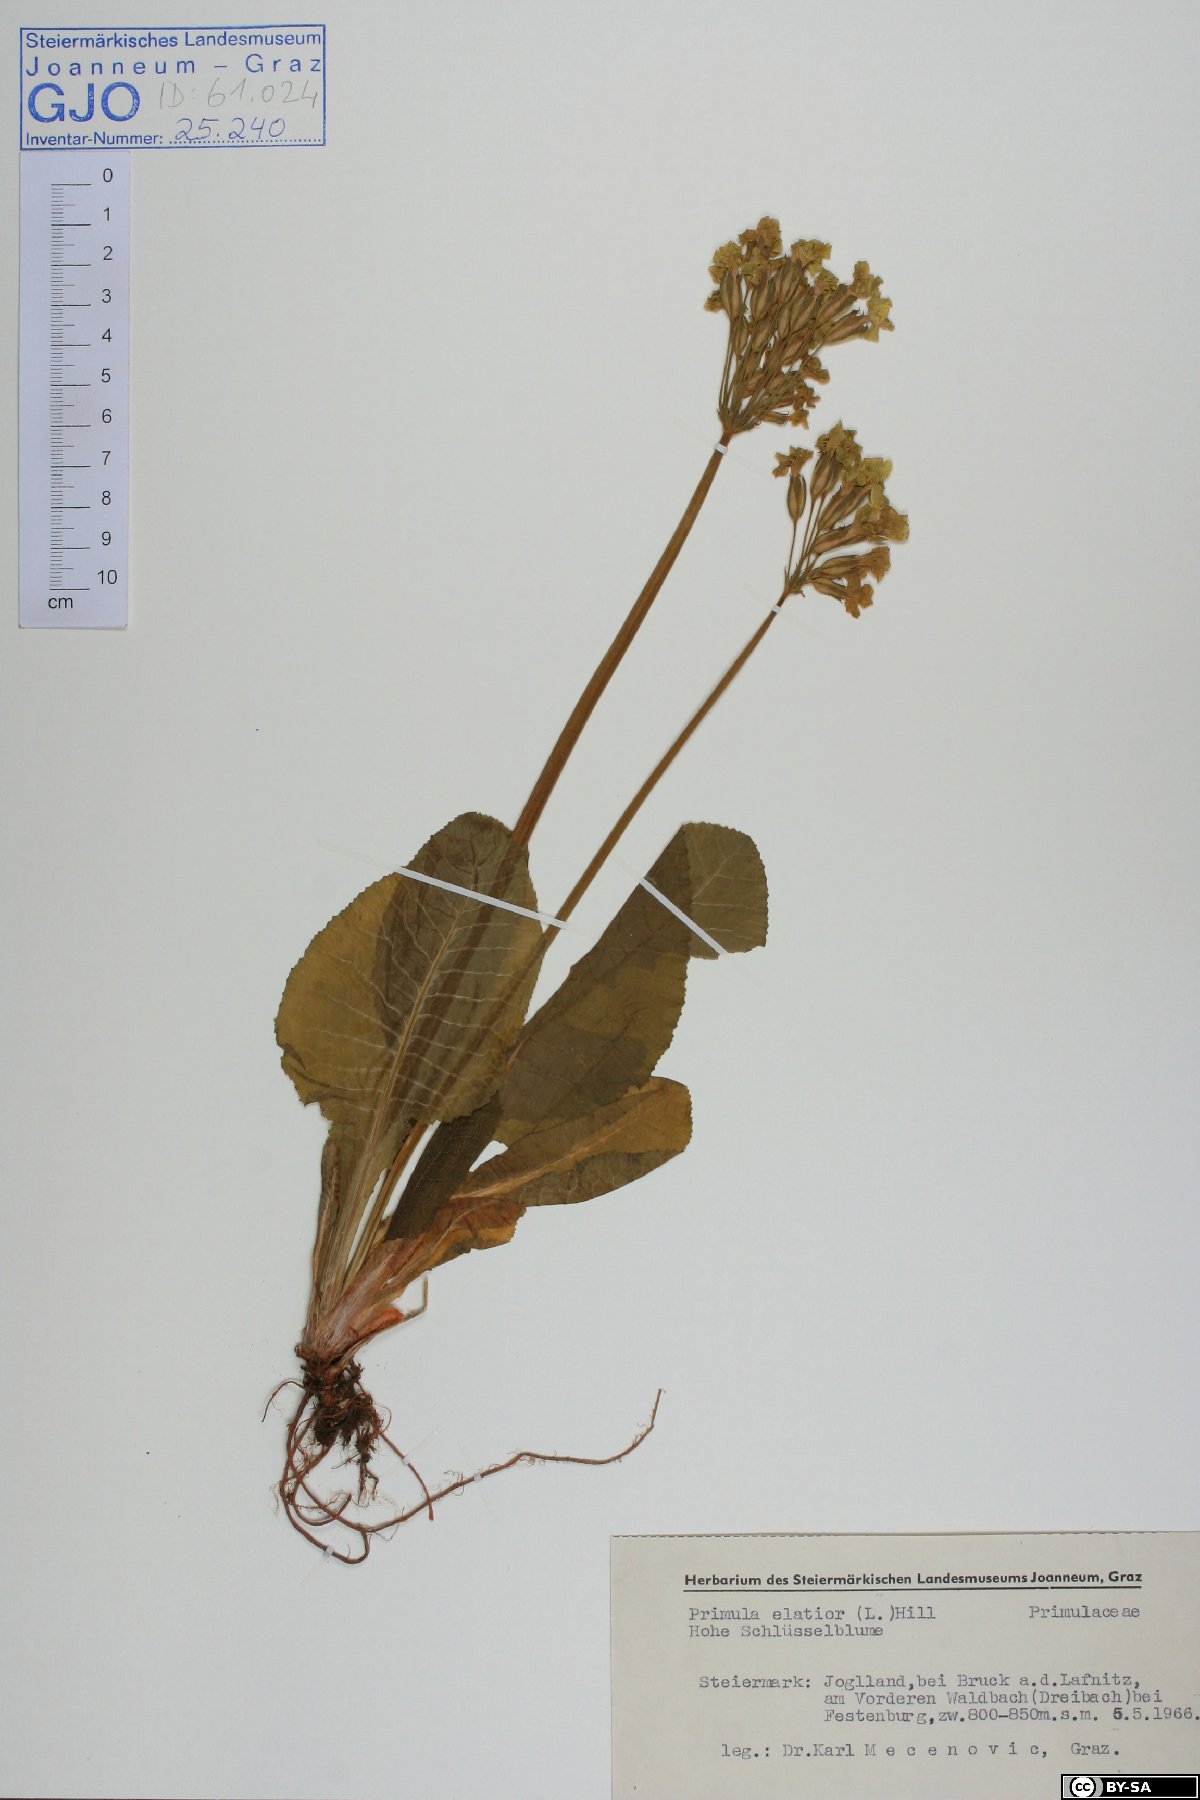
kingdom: Plantae
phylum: Tracheophyta
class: Magnoliopsida
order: Ericales
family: Primulaceae
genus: Primula
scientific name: Primula elatior
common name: Oxlip
